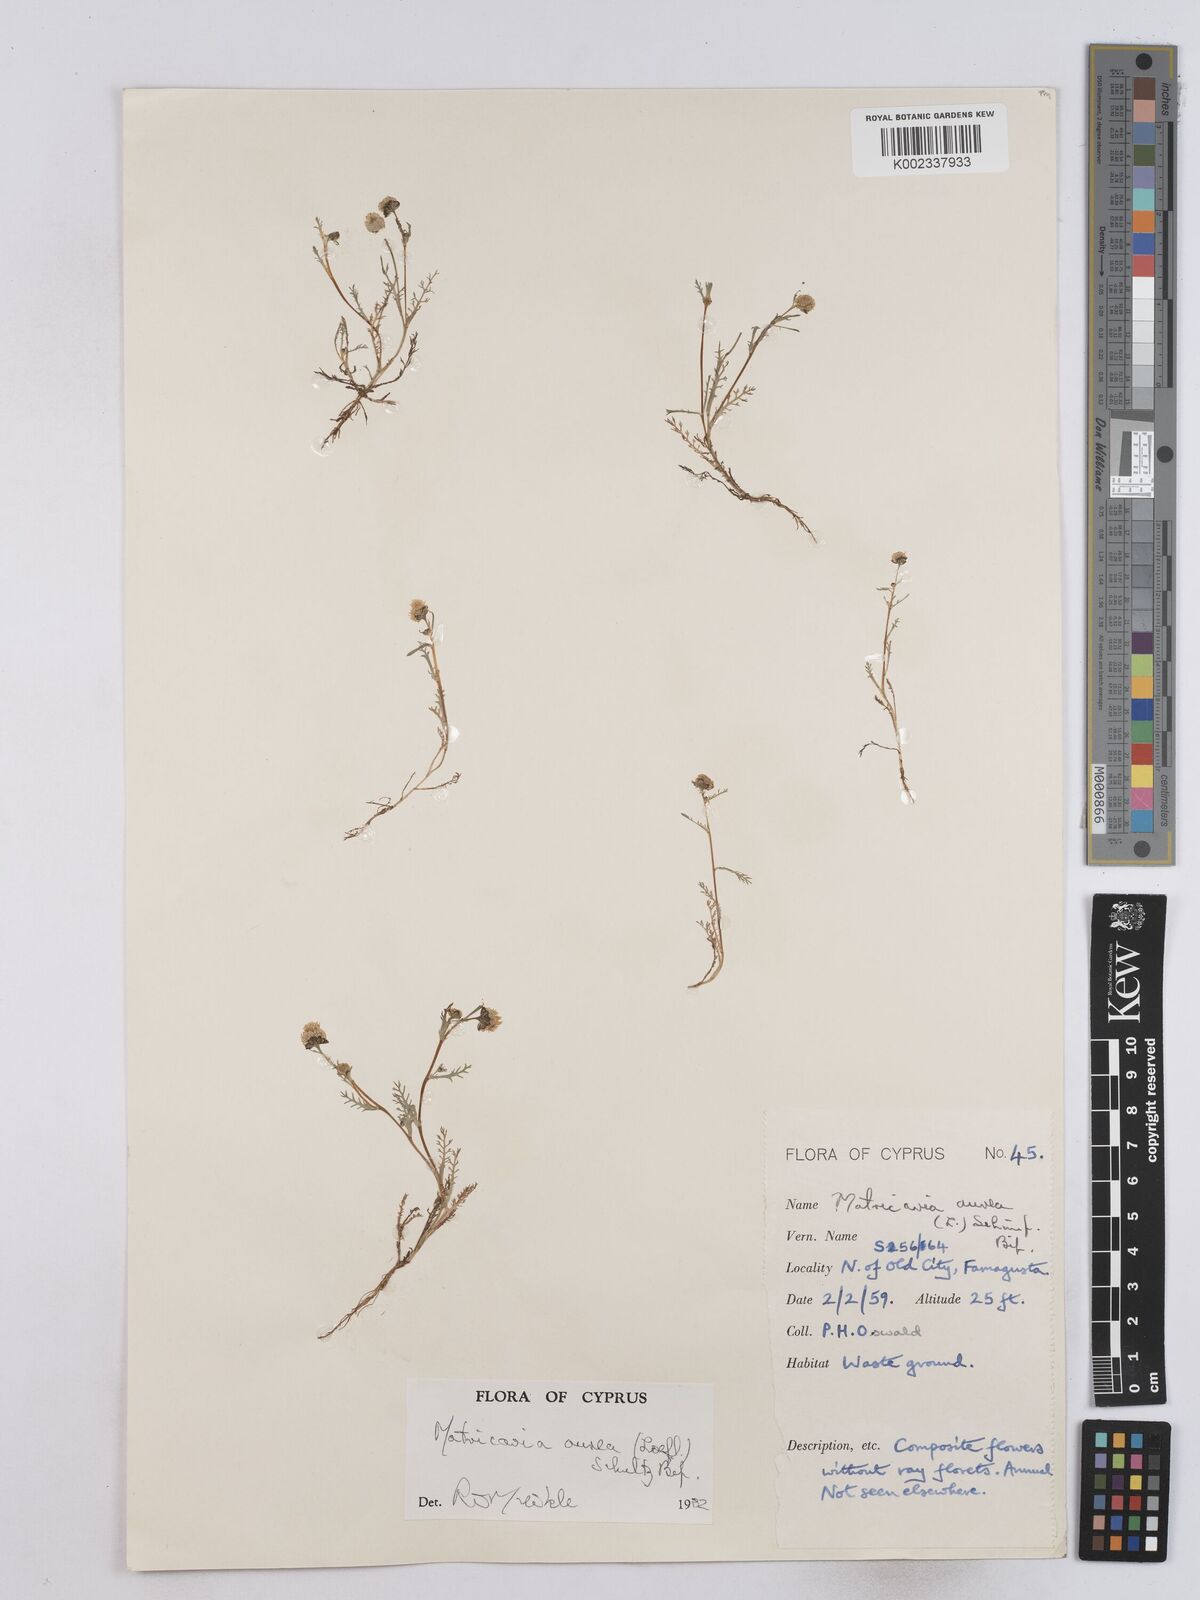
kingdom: Plantae
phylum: Tracheophyta
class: Magnoliopsida
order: Asterales
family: Asteraceae
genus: Matricaria
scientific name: Matricaria aurea
